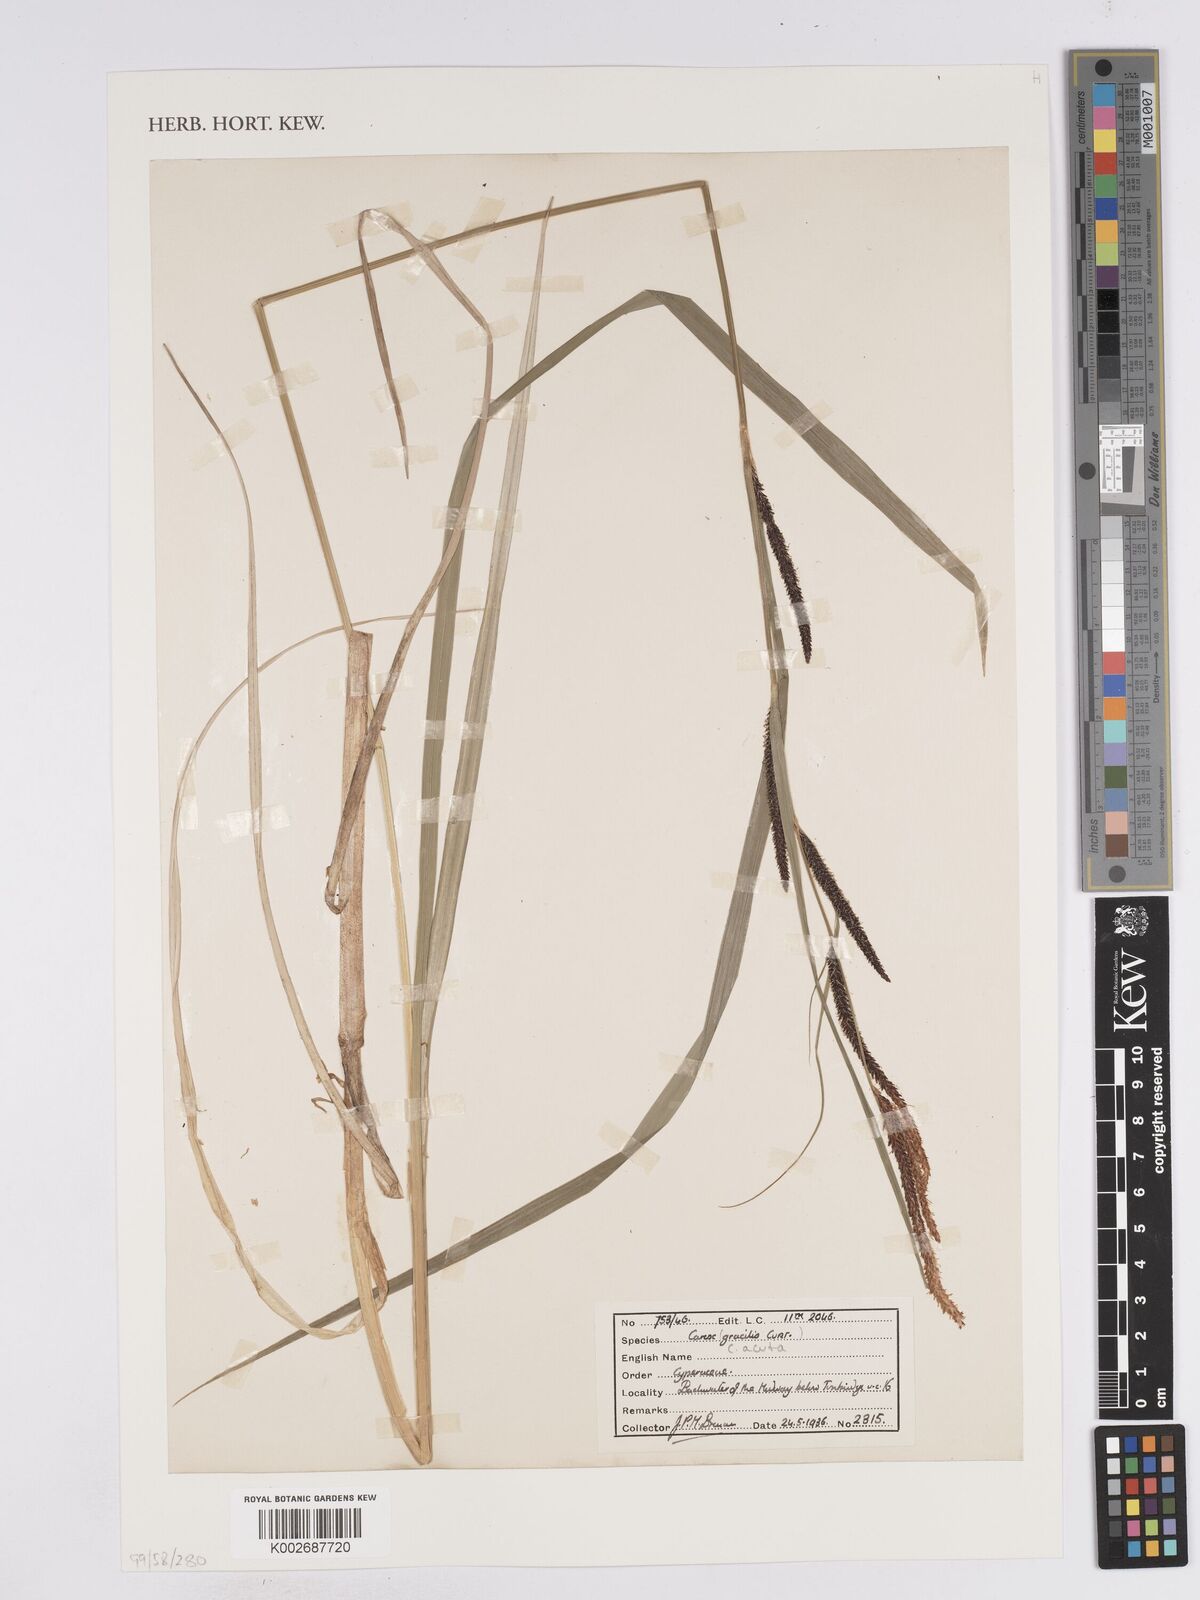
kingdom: Plantae
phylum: Tracheophyta
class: Liliopsida
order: Poales
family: Cyperaceae
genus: Carex
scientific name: Carex acuta
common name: Slender tufted-sedge
